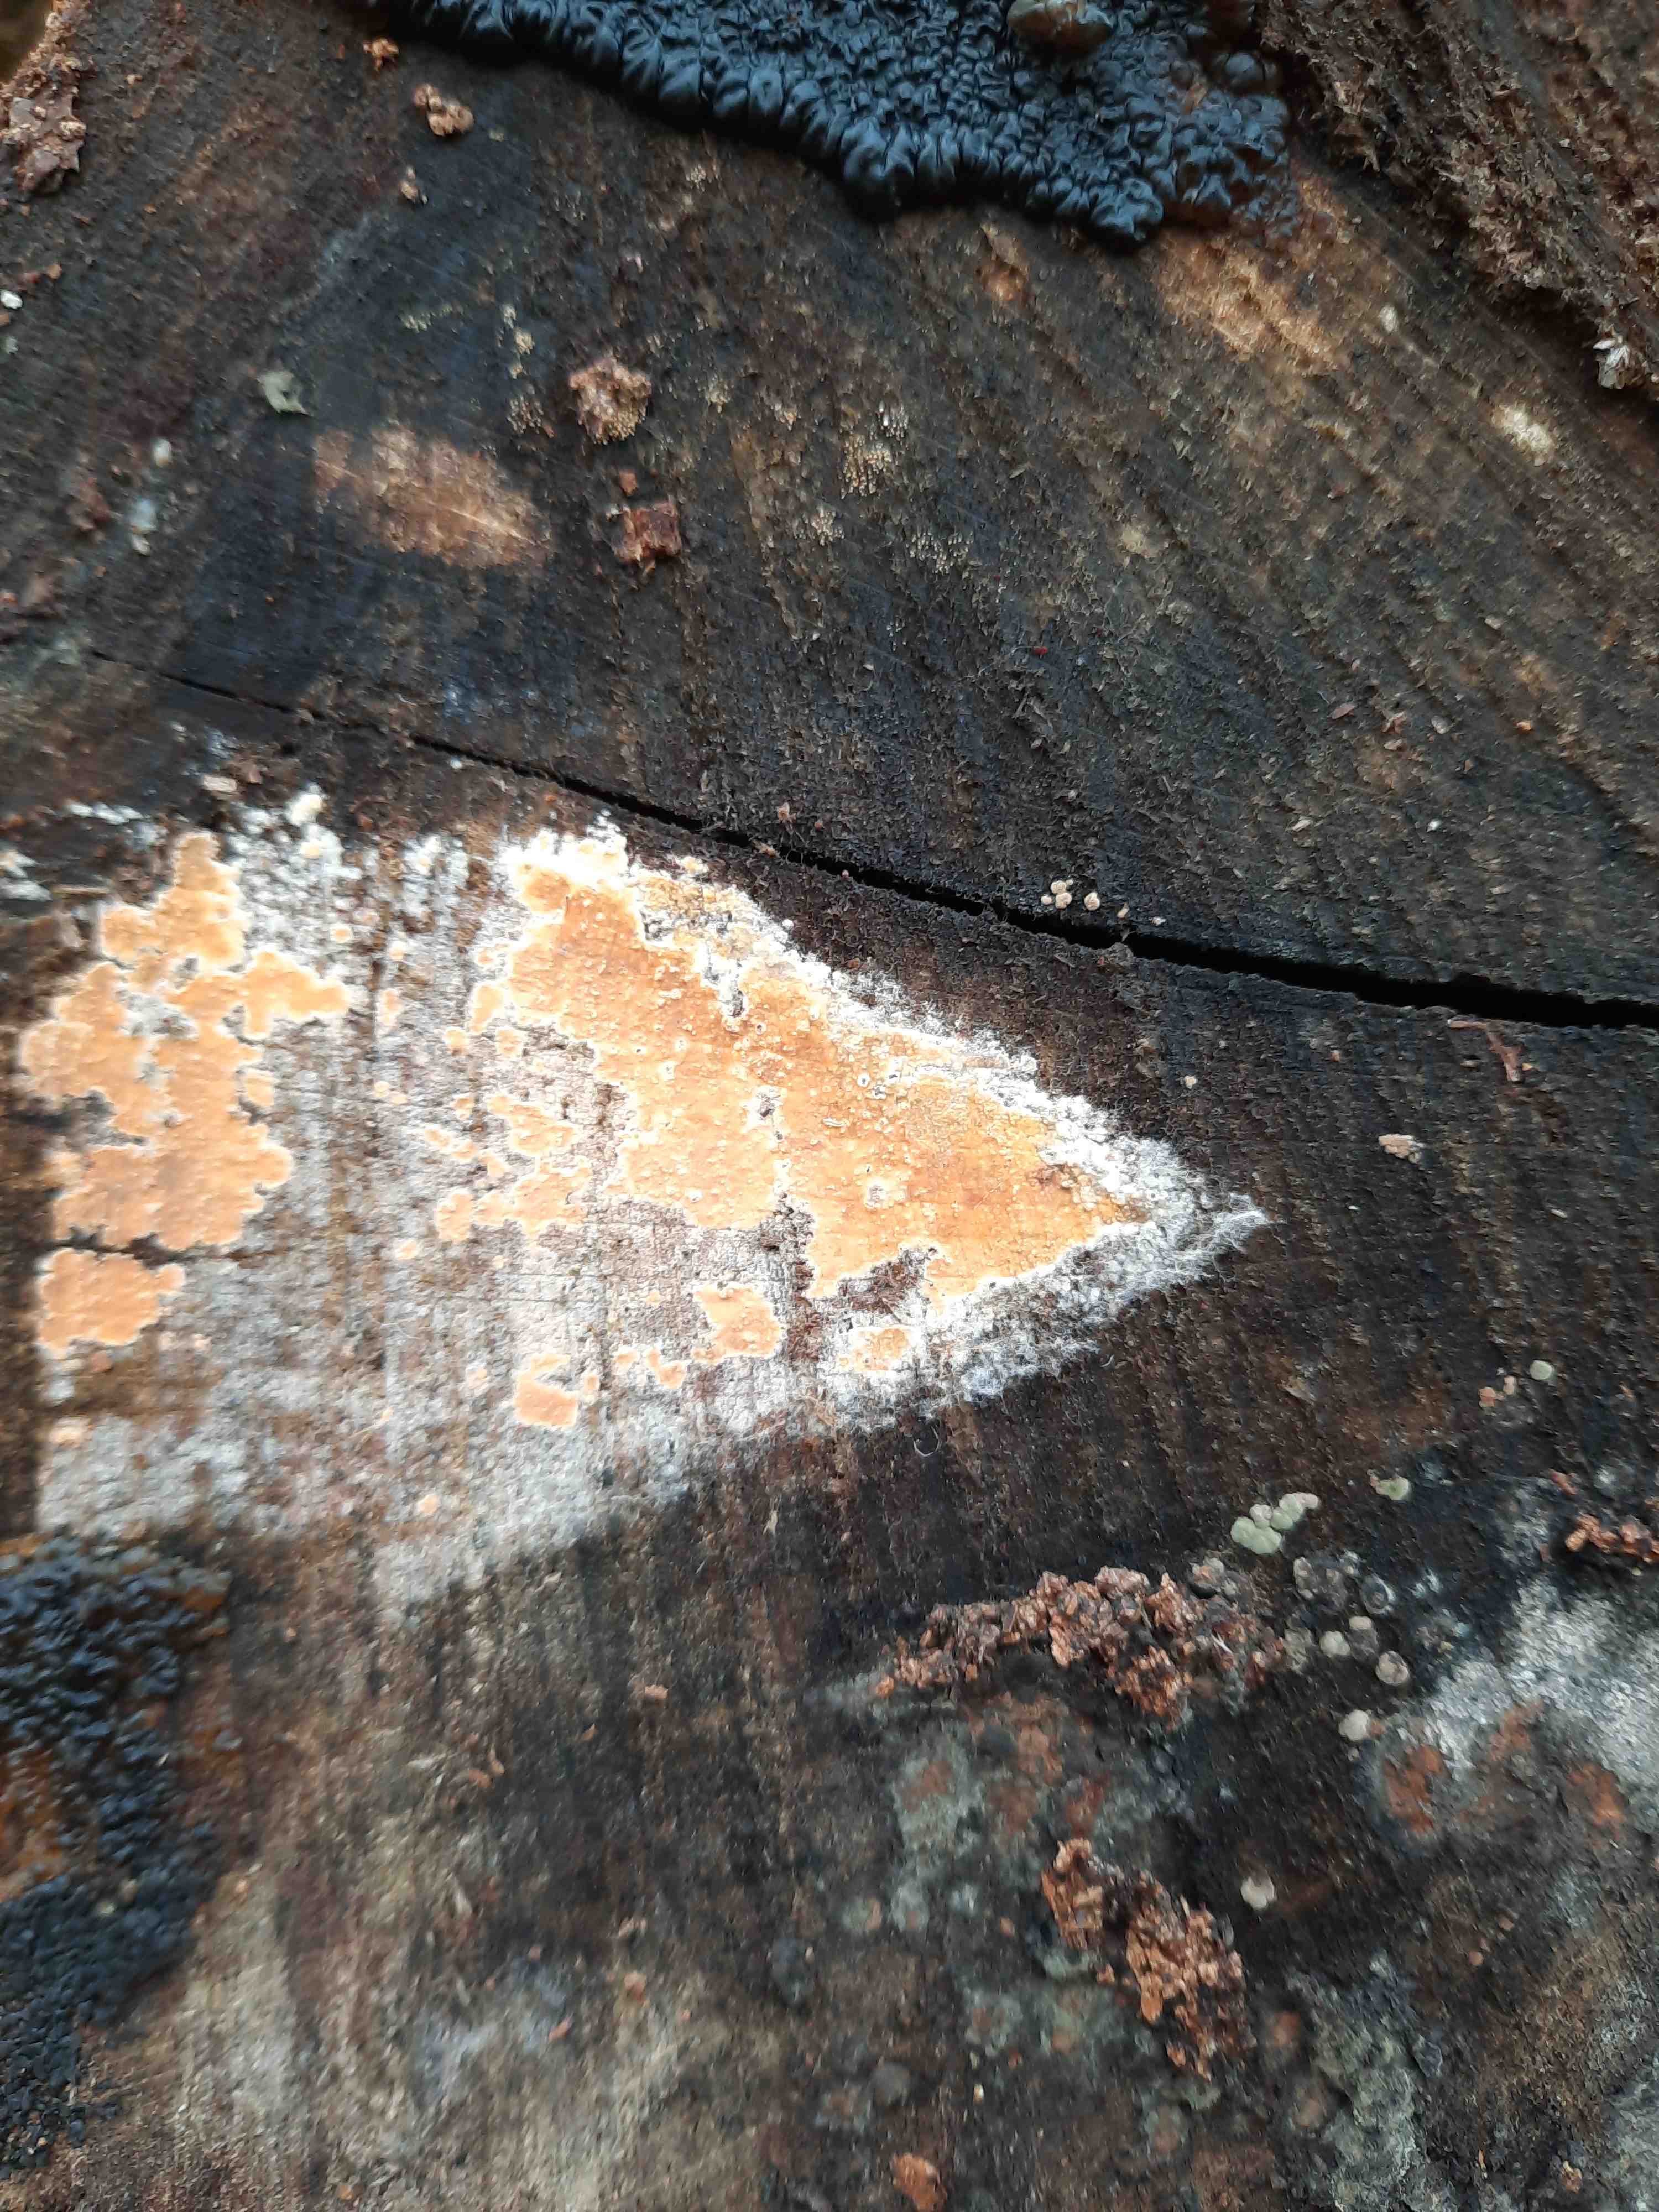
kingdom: Fungi
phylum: Basidiomycota
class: Agaricomycetes
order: Russulales
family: Peniophoraceae
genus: Peniophora
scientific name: Peniophora incarnata
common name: laksefarvet voksskind
